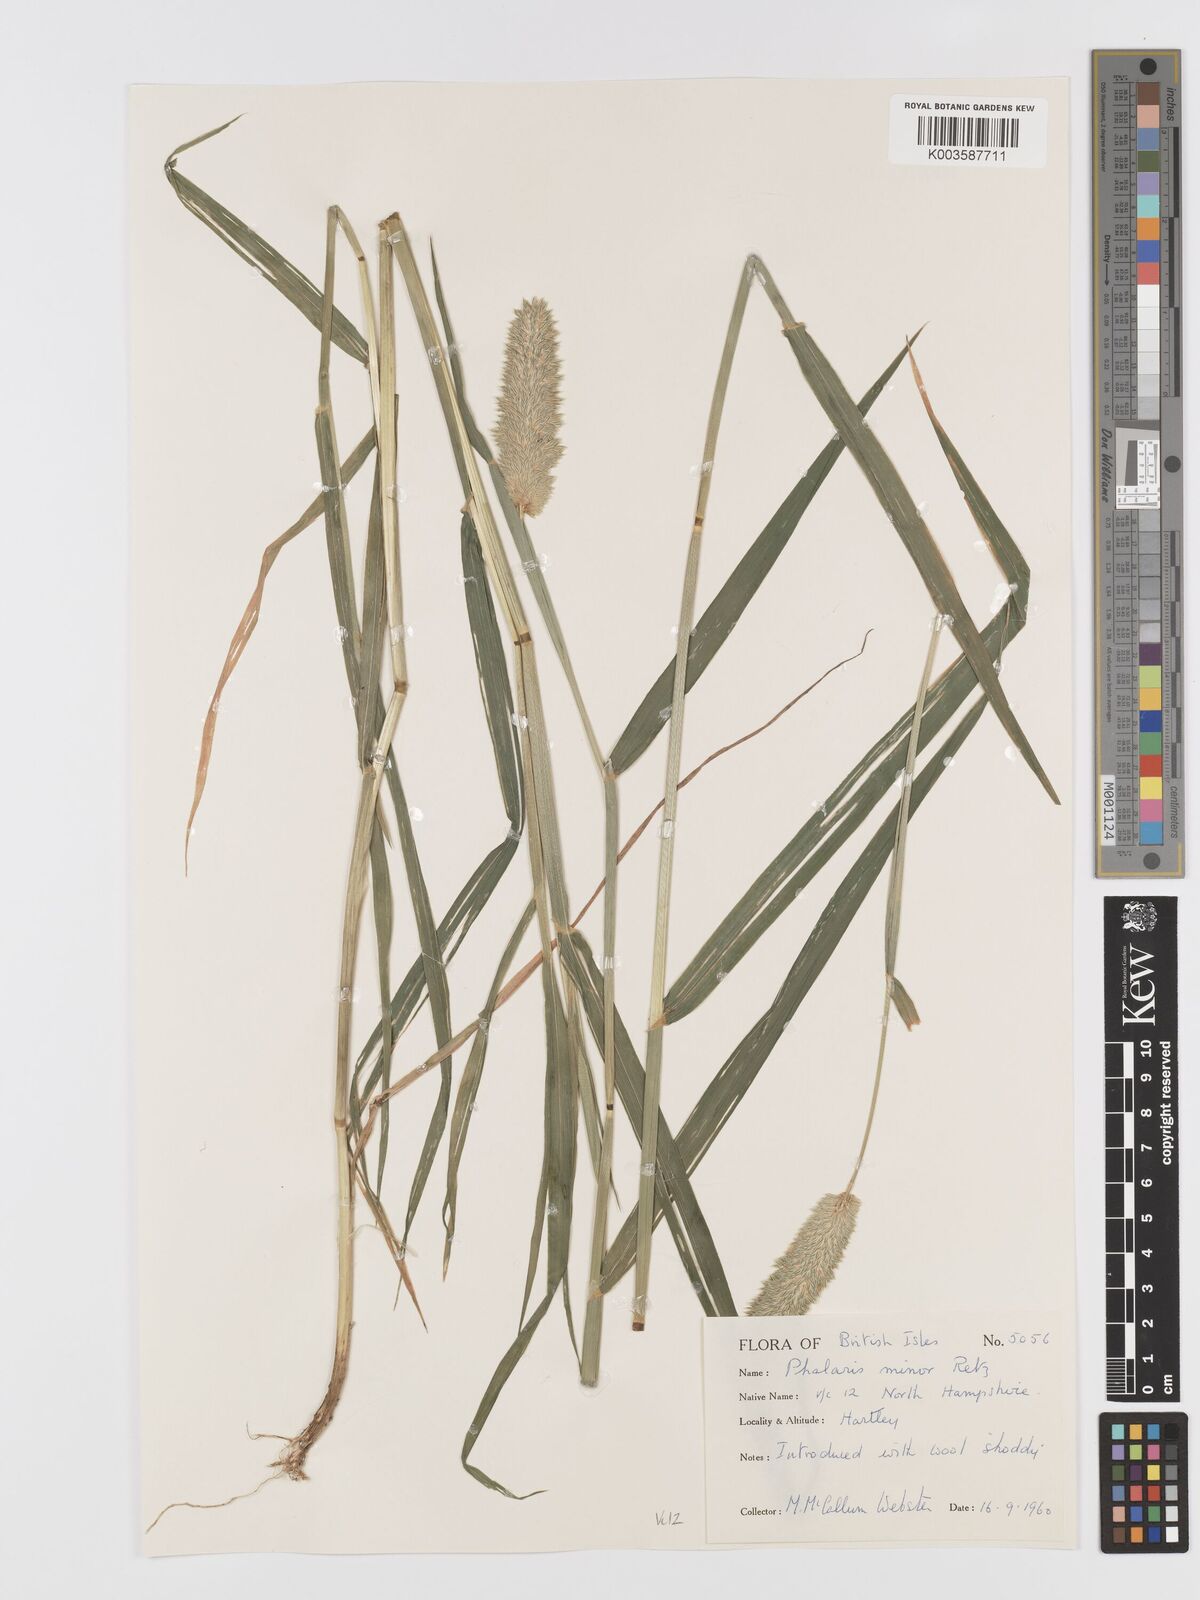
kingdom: Plantae
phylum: Tracheophyta
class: Liliopsida
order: Poales
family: Poaceae
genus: Phalaris
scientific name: Phalaris minor
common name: Littleseed canarygrass
